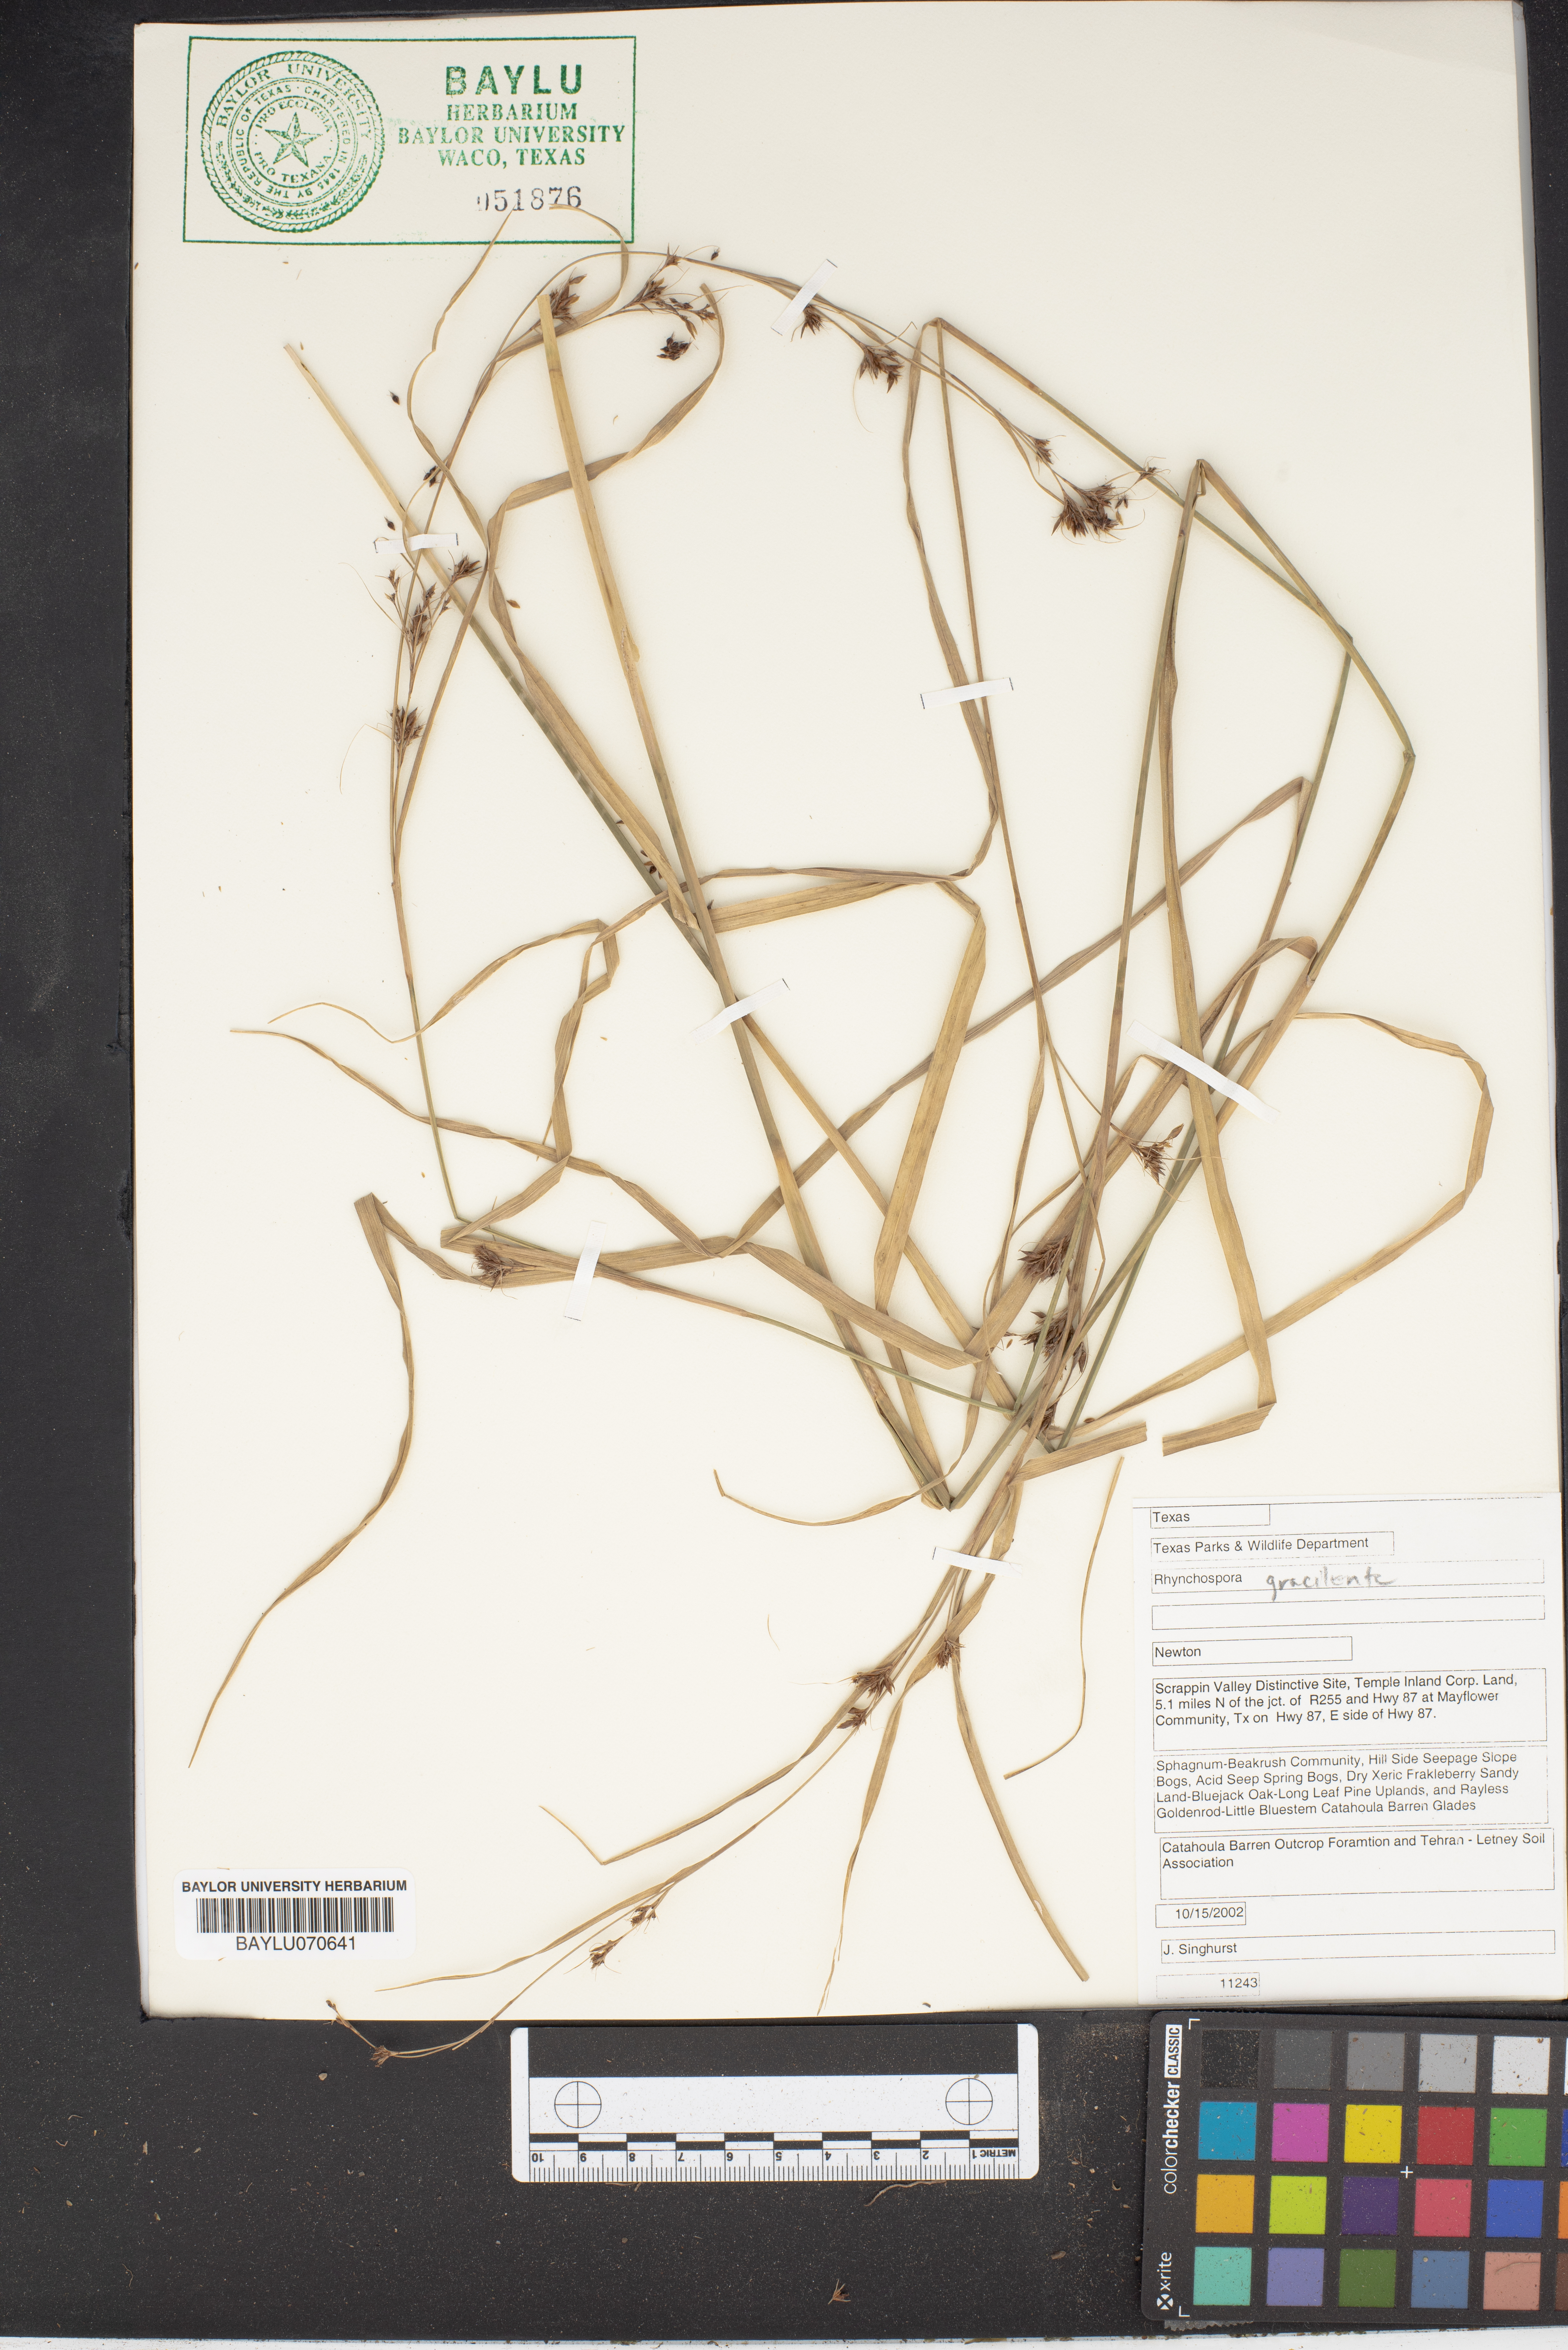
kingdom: Plantae
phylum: Tracheophyta
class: Liliopsida
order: Poales
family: Cyperaceae
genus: Rhynchospora
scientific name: Rhynchospora gracilenta
